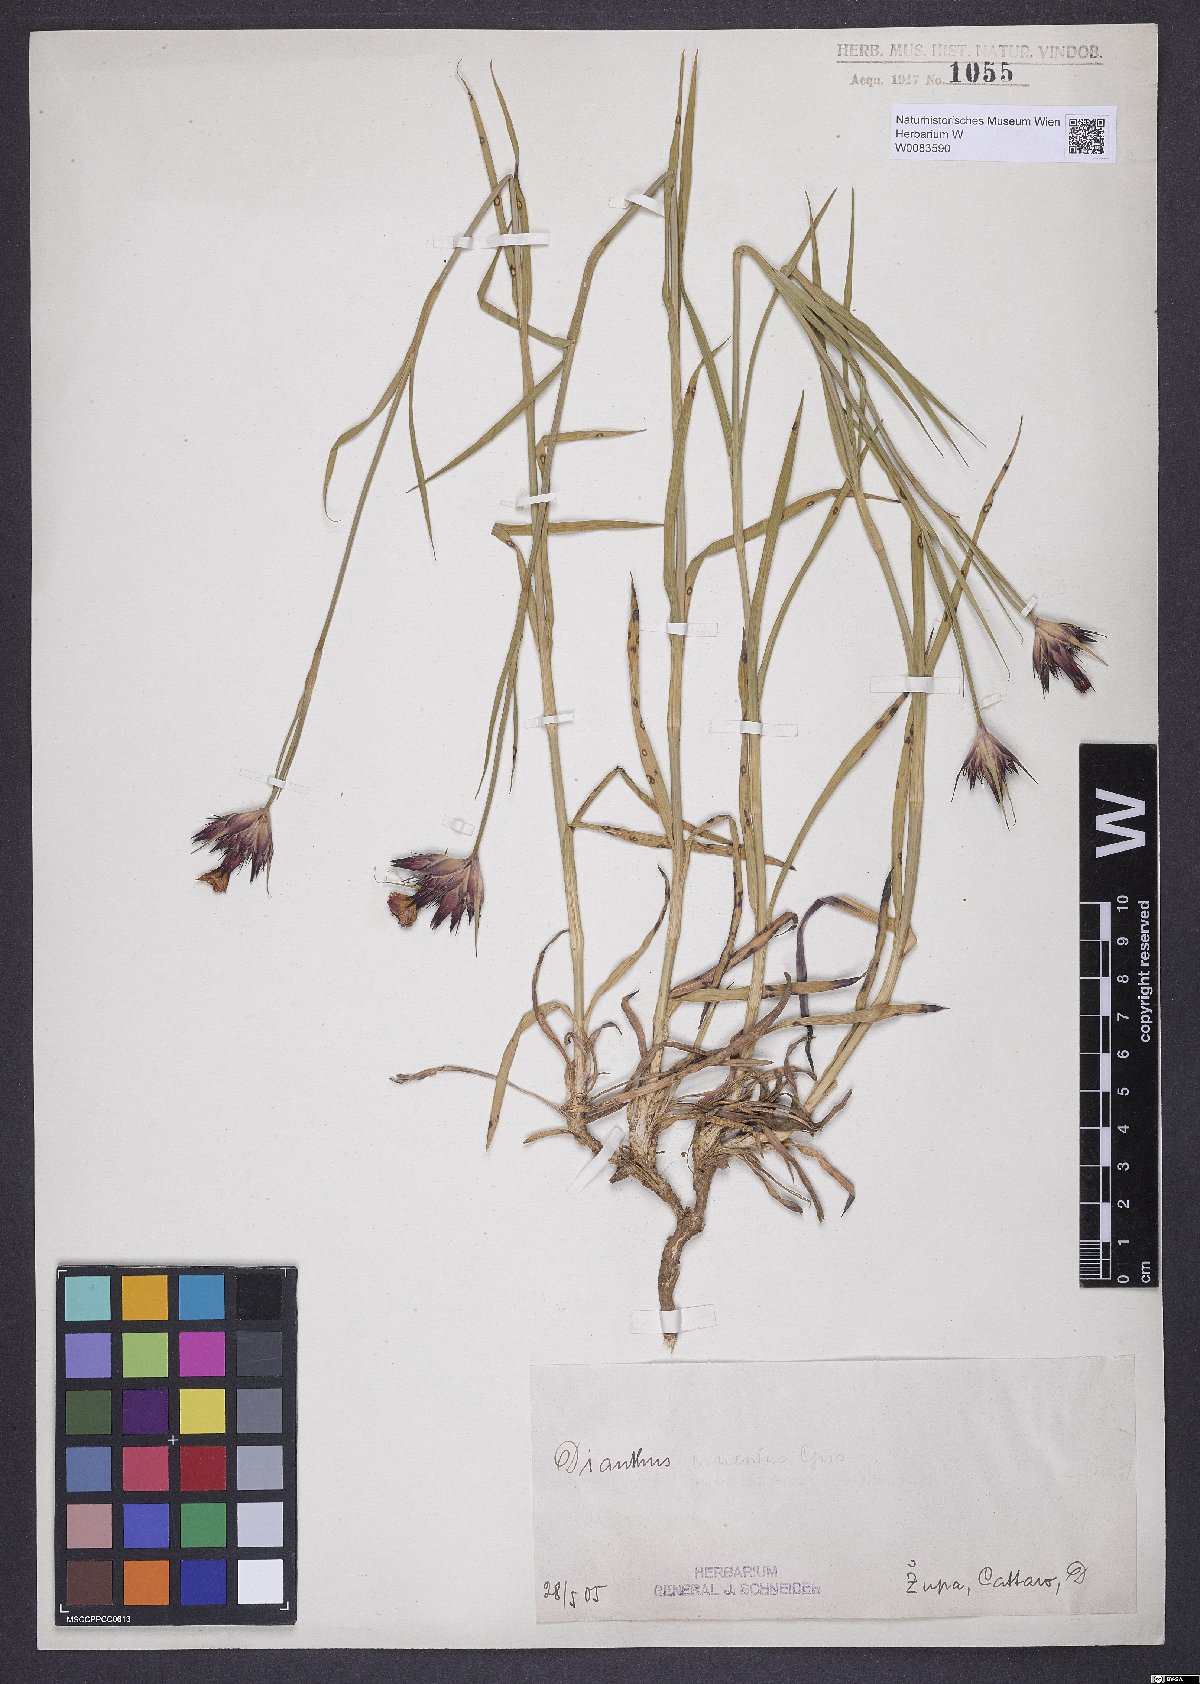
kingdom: Plantae
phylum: Tracheophyta
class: Magnoliopsida
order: Caryophyllales
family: Caryophyllaceae
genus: Dianthus
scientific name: Dianthus cruentus
